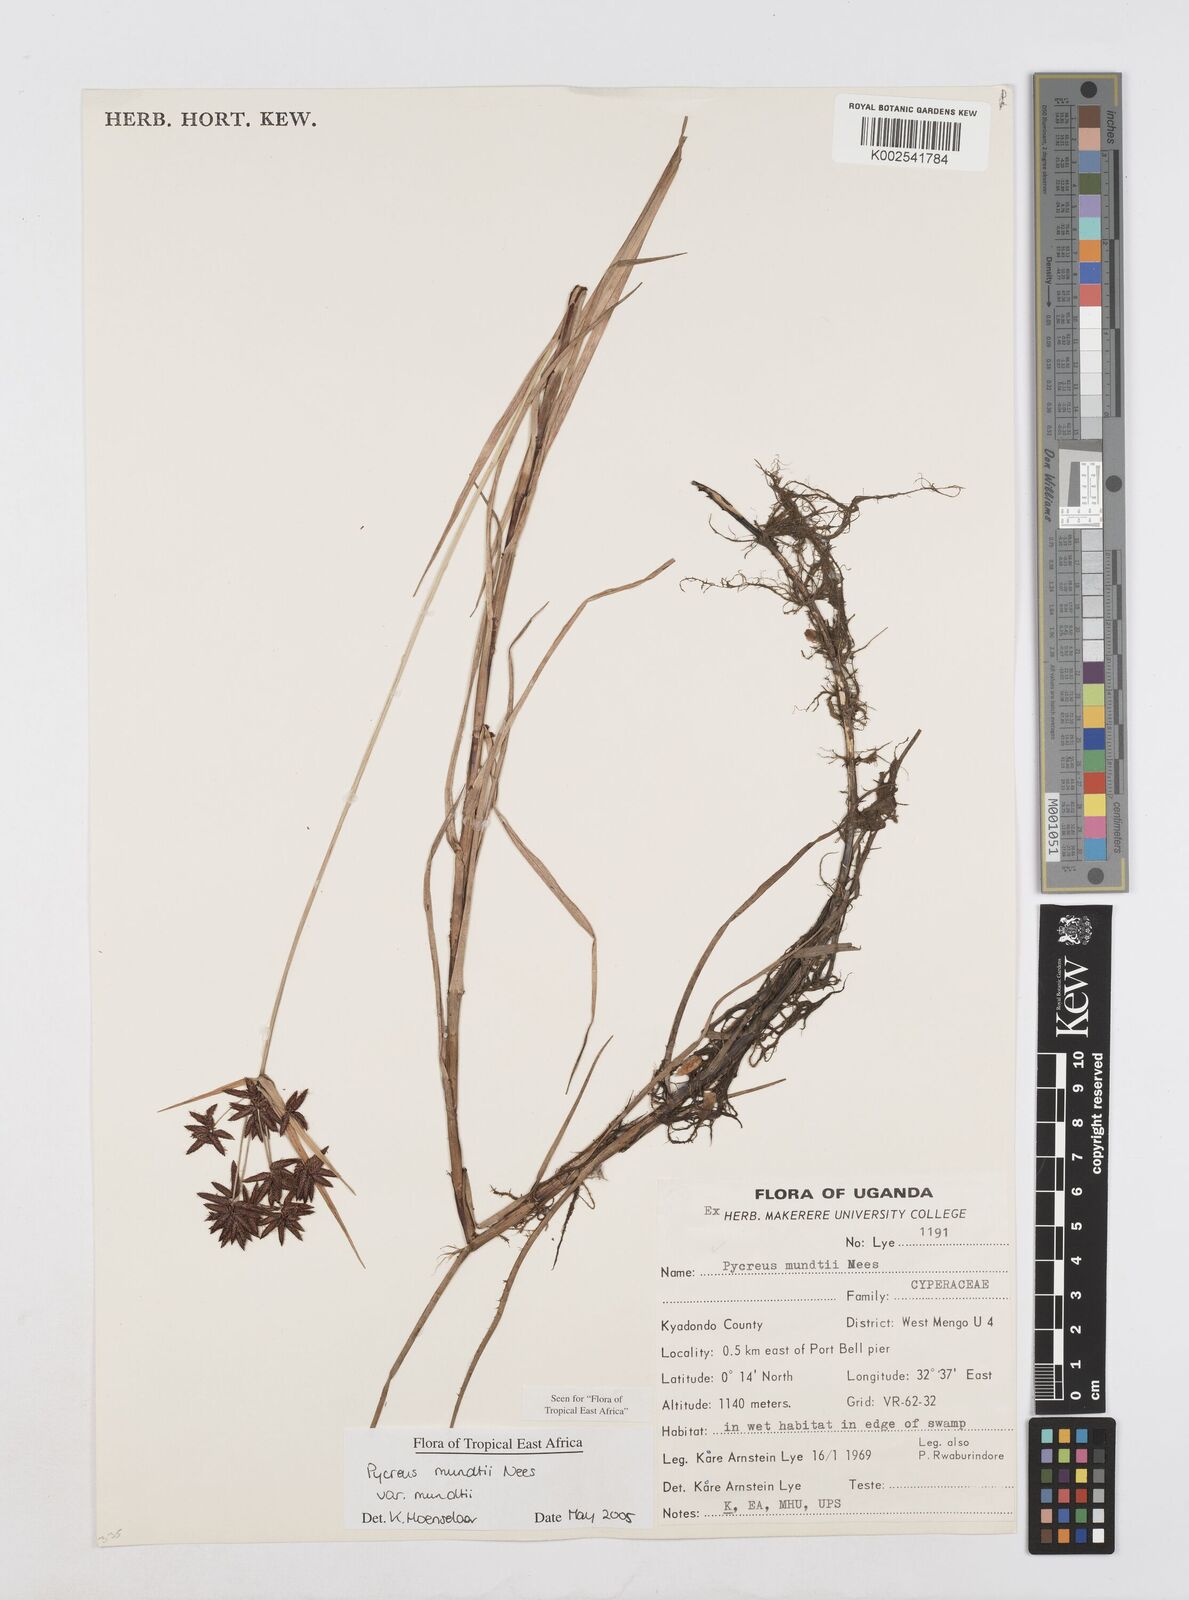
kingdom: Plantae
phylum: Tracheophyta
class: Liliopsida
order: Poales
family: Cyperaceae
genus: Cyperus
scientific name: Cyperus mundii
